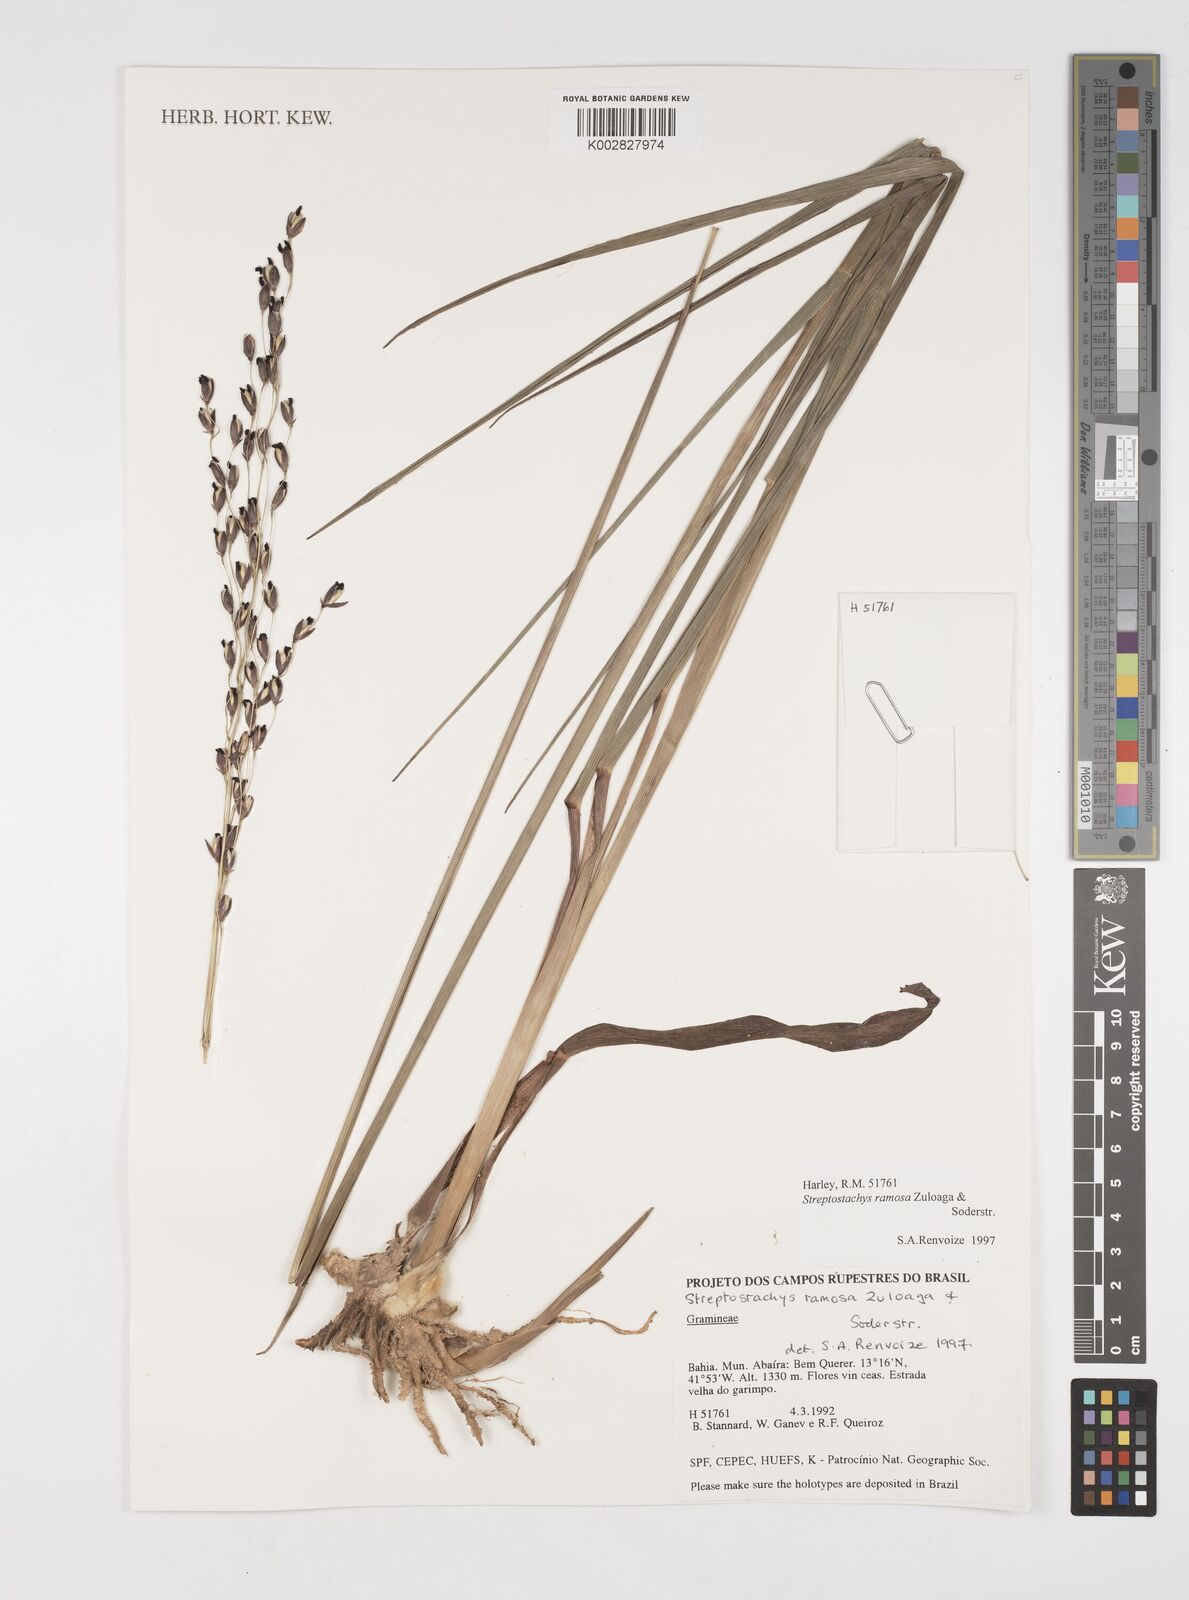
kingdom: Plantae
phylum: Tracheophyta
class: Liliopsida
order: Poales
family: Poaceae
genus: Oncorachis
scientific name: Oncorachis ramosa
